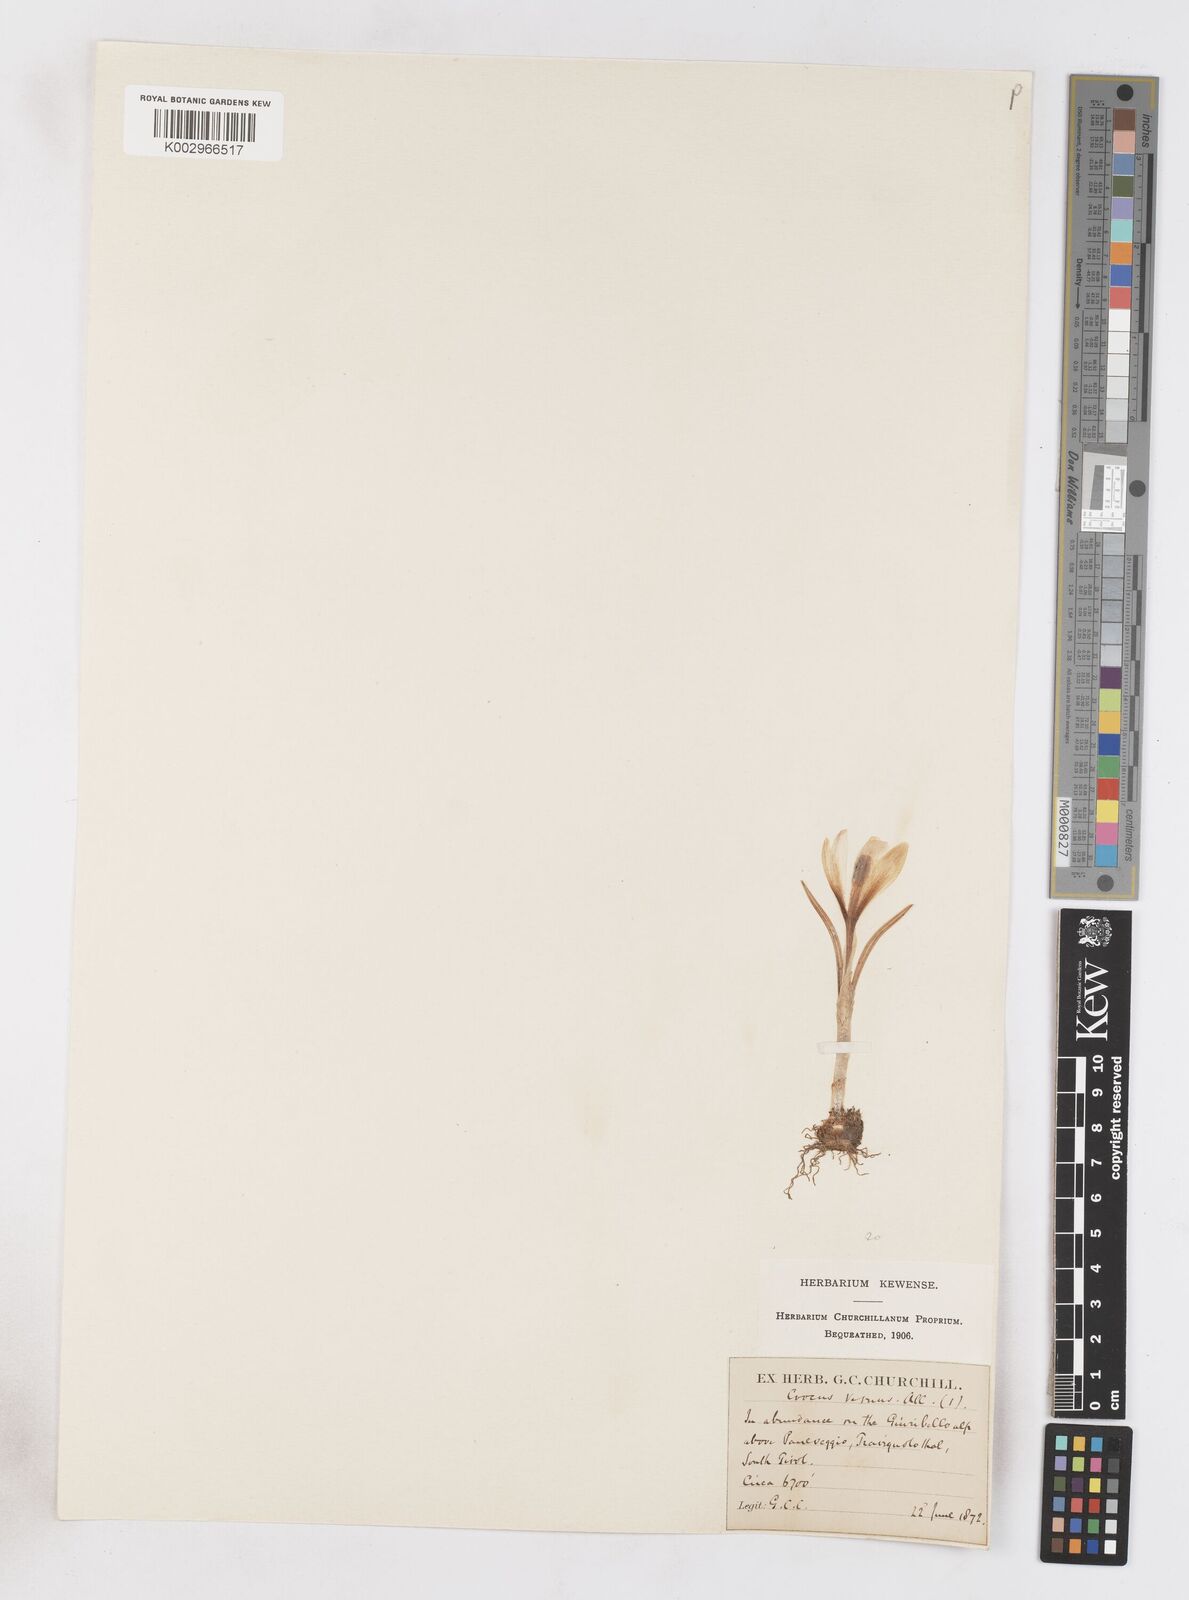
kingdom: Plantae
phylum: Tracheophyta
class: Liliopsida
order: Asparagales
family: Iridaceae
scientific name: Iridaceae
